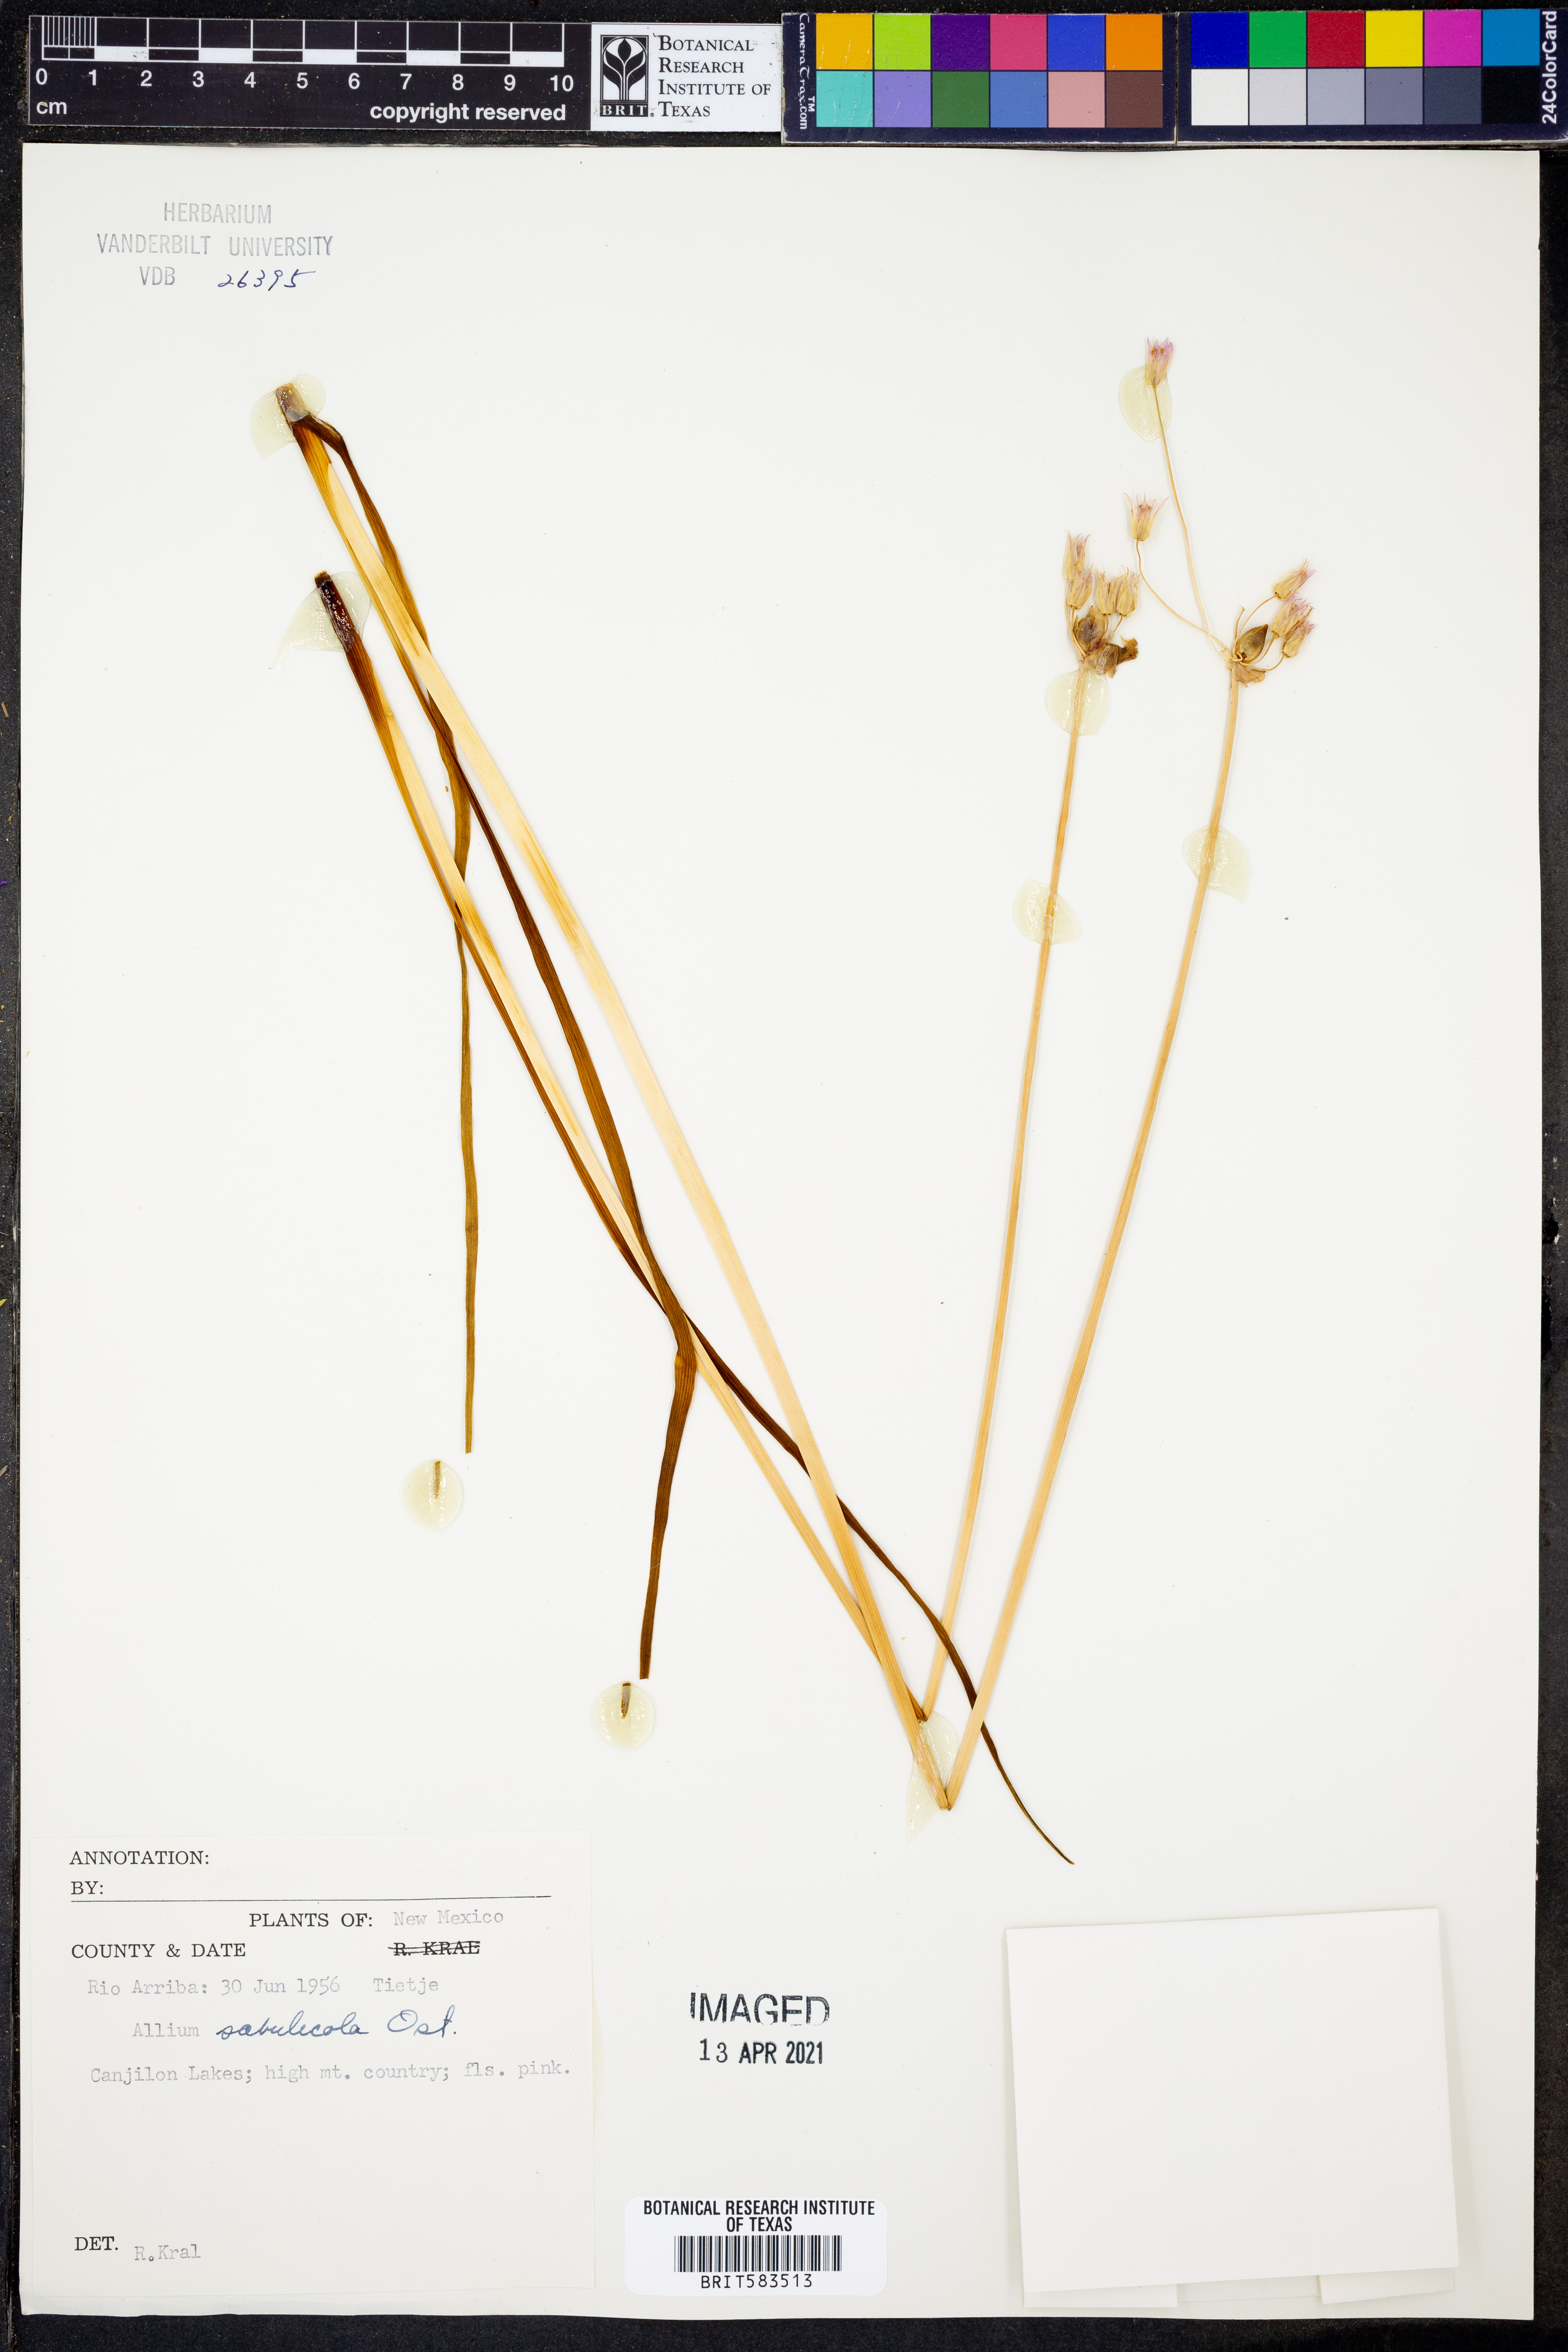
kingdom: Plantae
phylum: Tracheophyta
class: Liliopsida
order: Asparagales
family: Amaryllidaceae
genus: Allium
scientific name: Allium geyeri
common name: Geyer's onion
